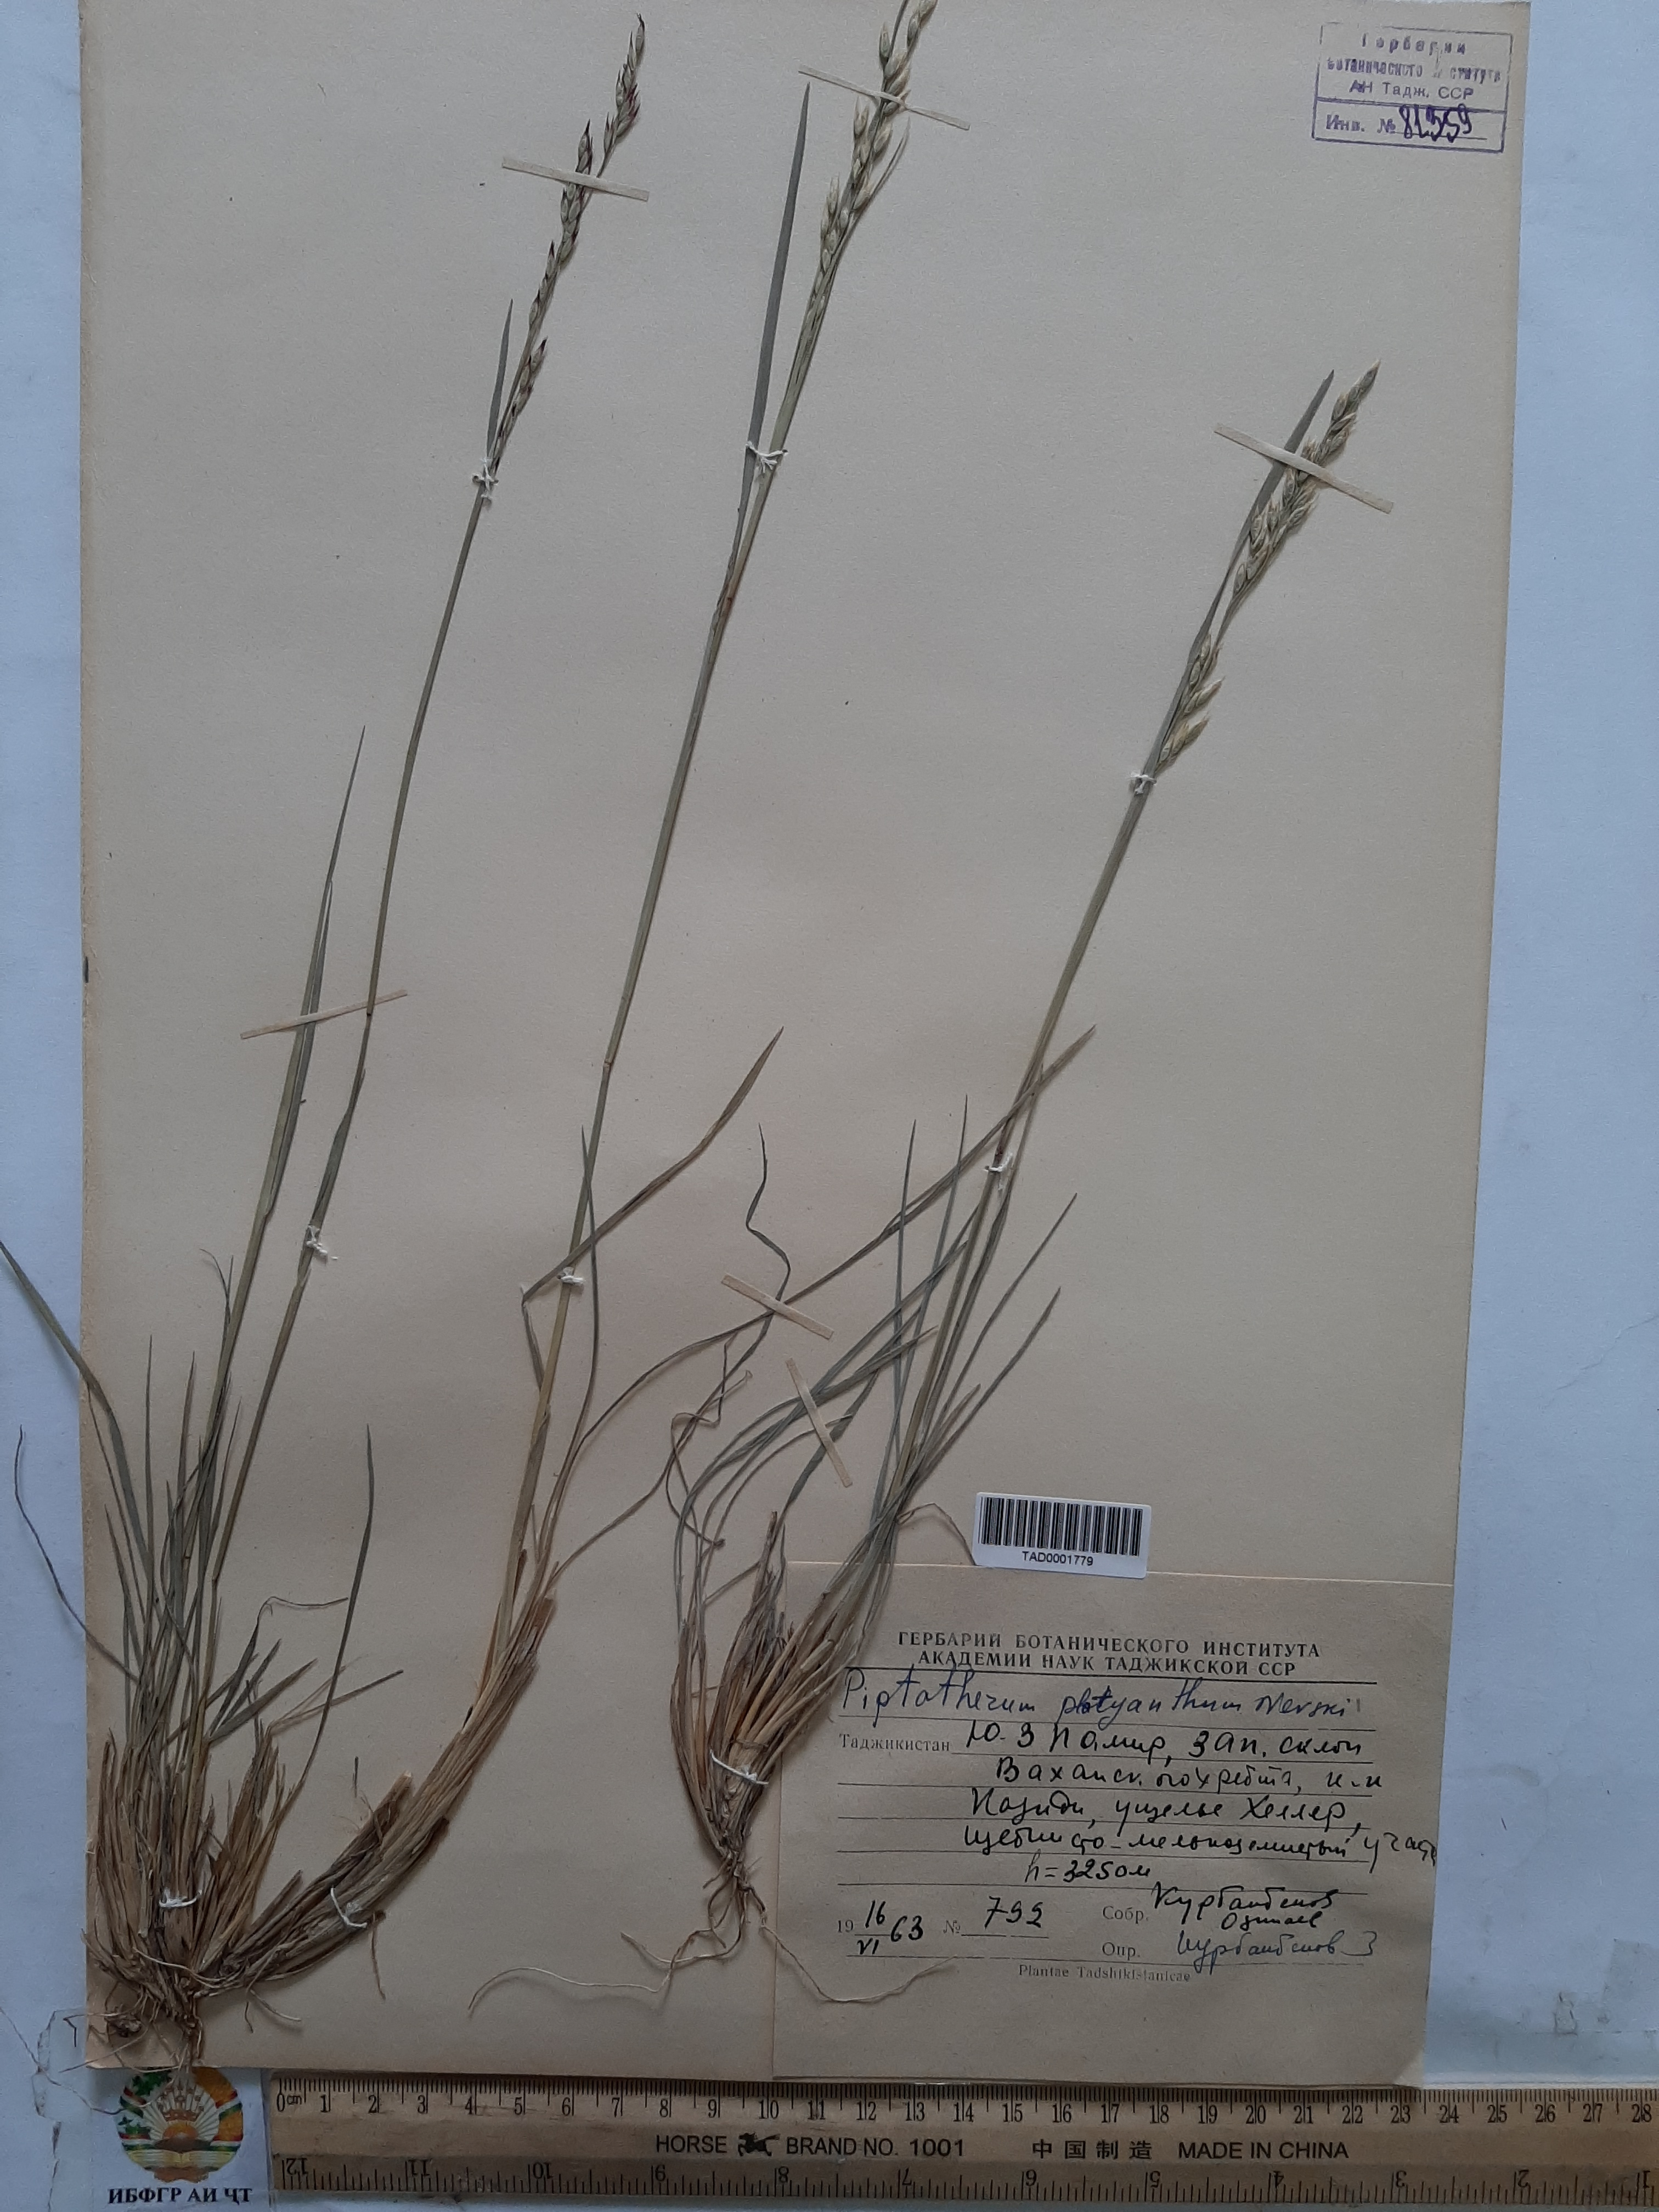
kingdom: Plantae
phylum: Tracheophyta
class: Liliopsida
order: Poales
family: Poaceae
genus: Piptatherum
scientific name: Piptatherum platyanthum
